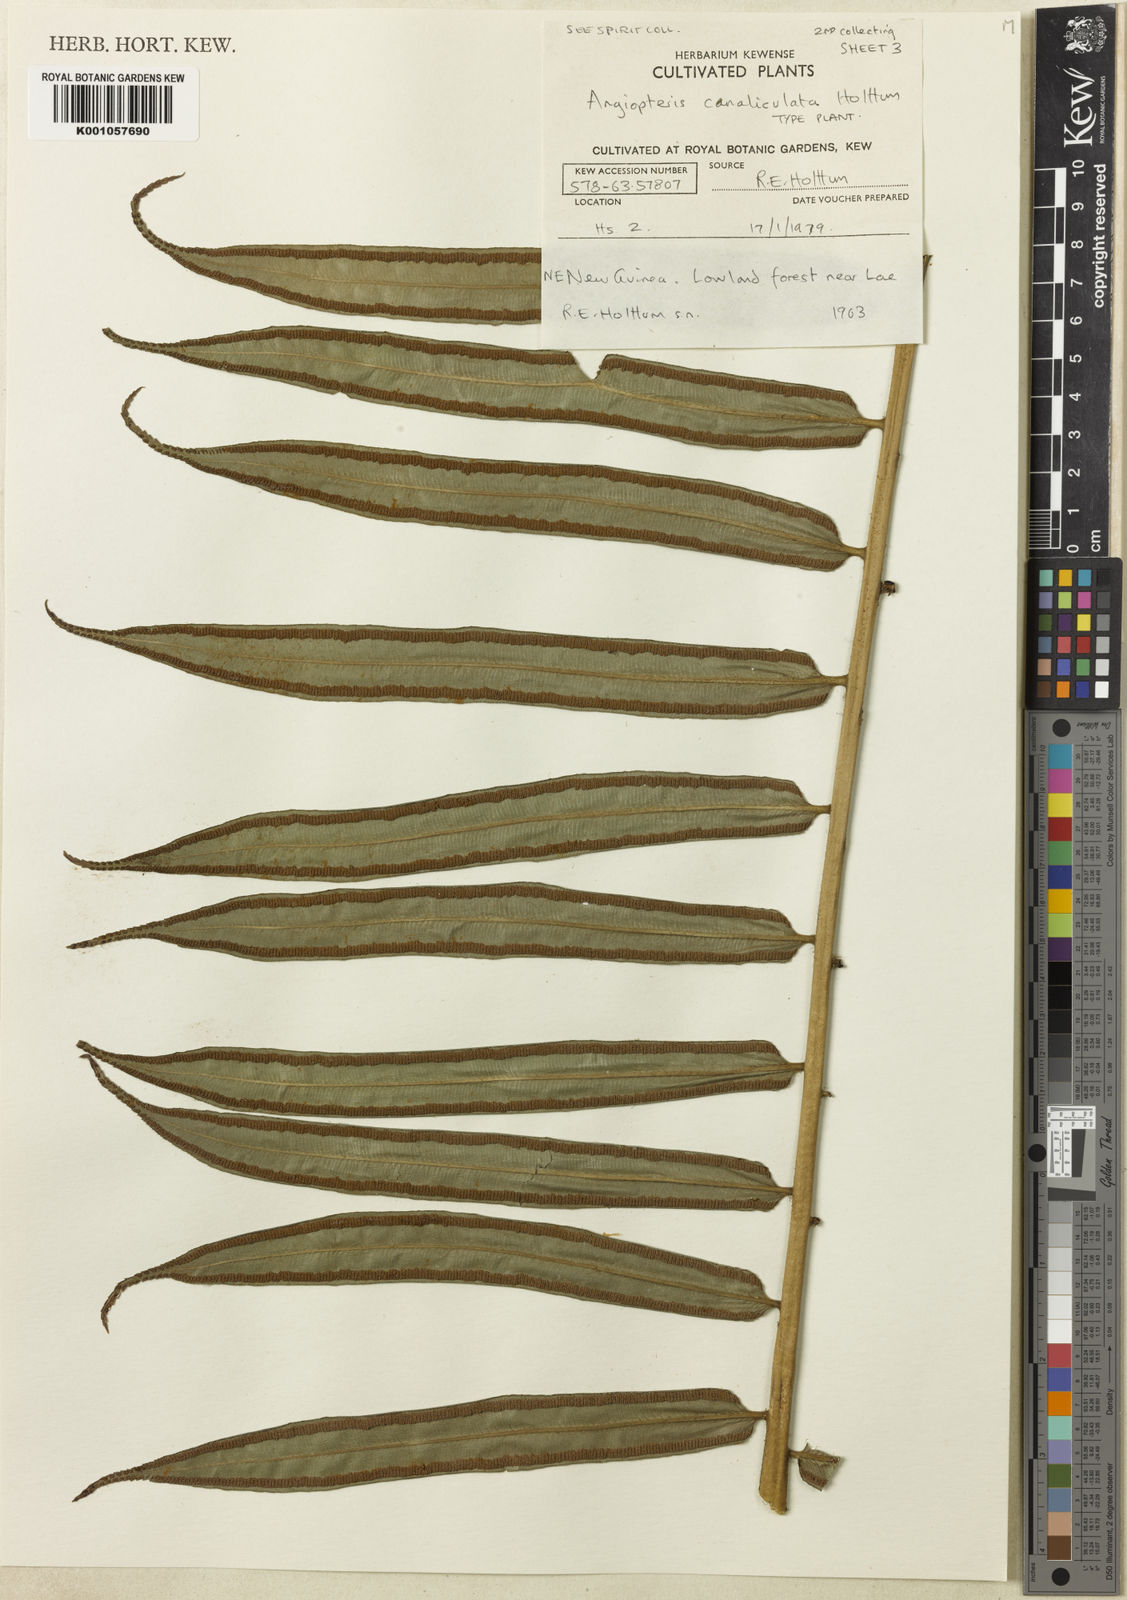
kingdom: Plantae
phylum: Tracheophyta
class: Polypodiopsida
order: Marattiales
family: Marattiaceae
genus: Angiopteris
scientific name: Angiopteris evecta
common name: Mule's-foot fern
